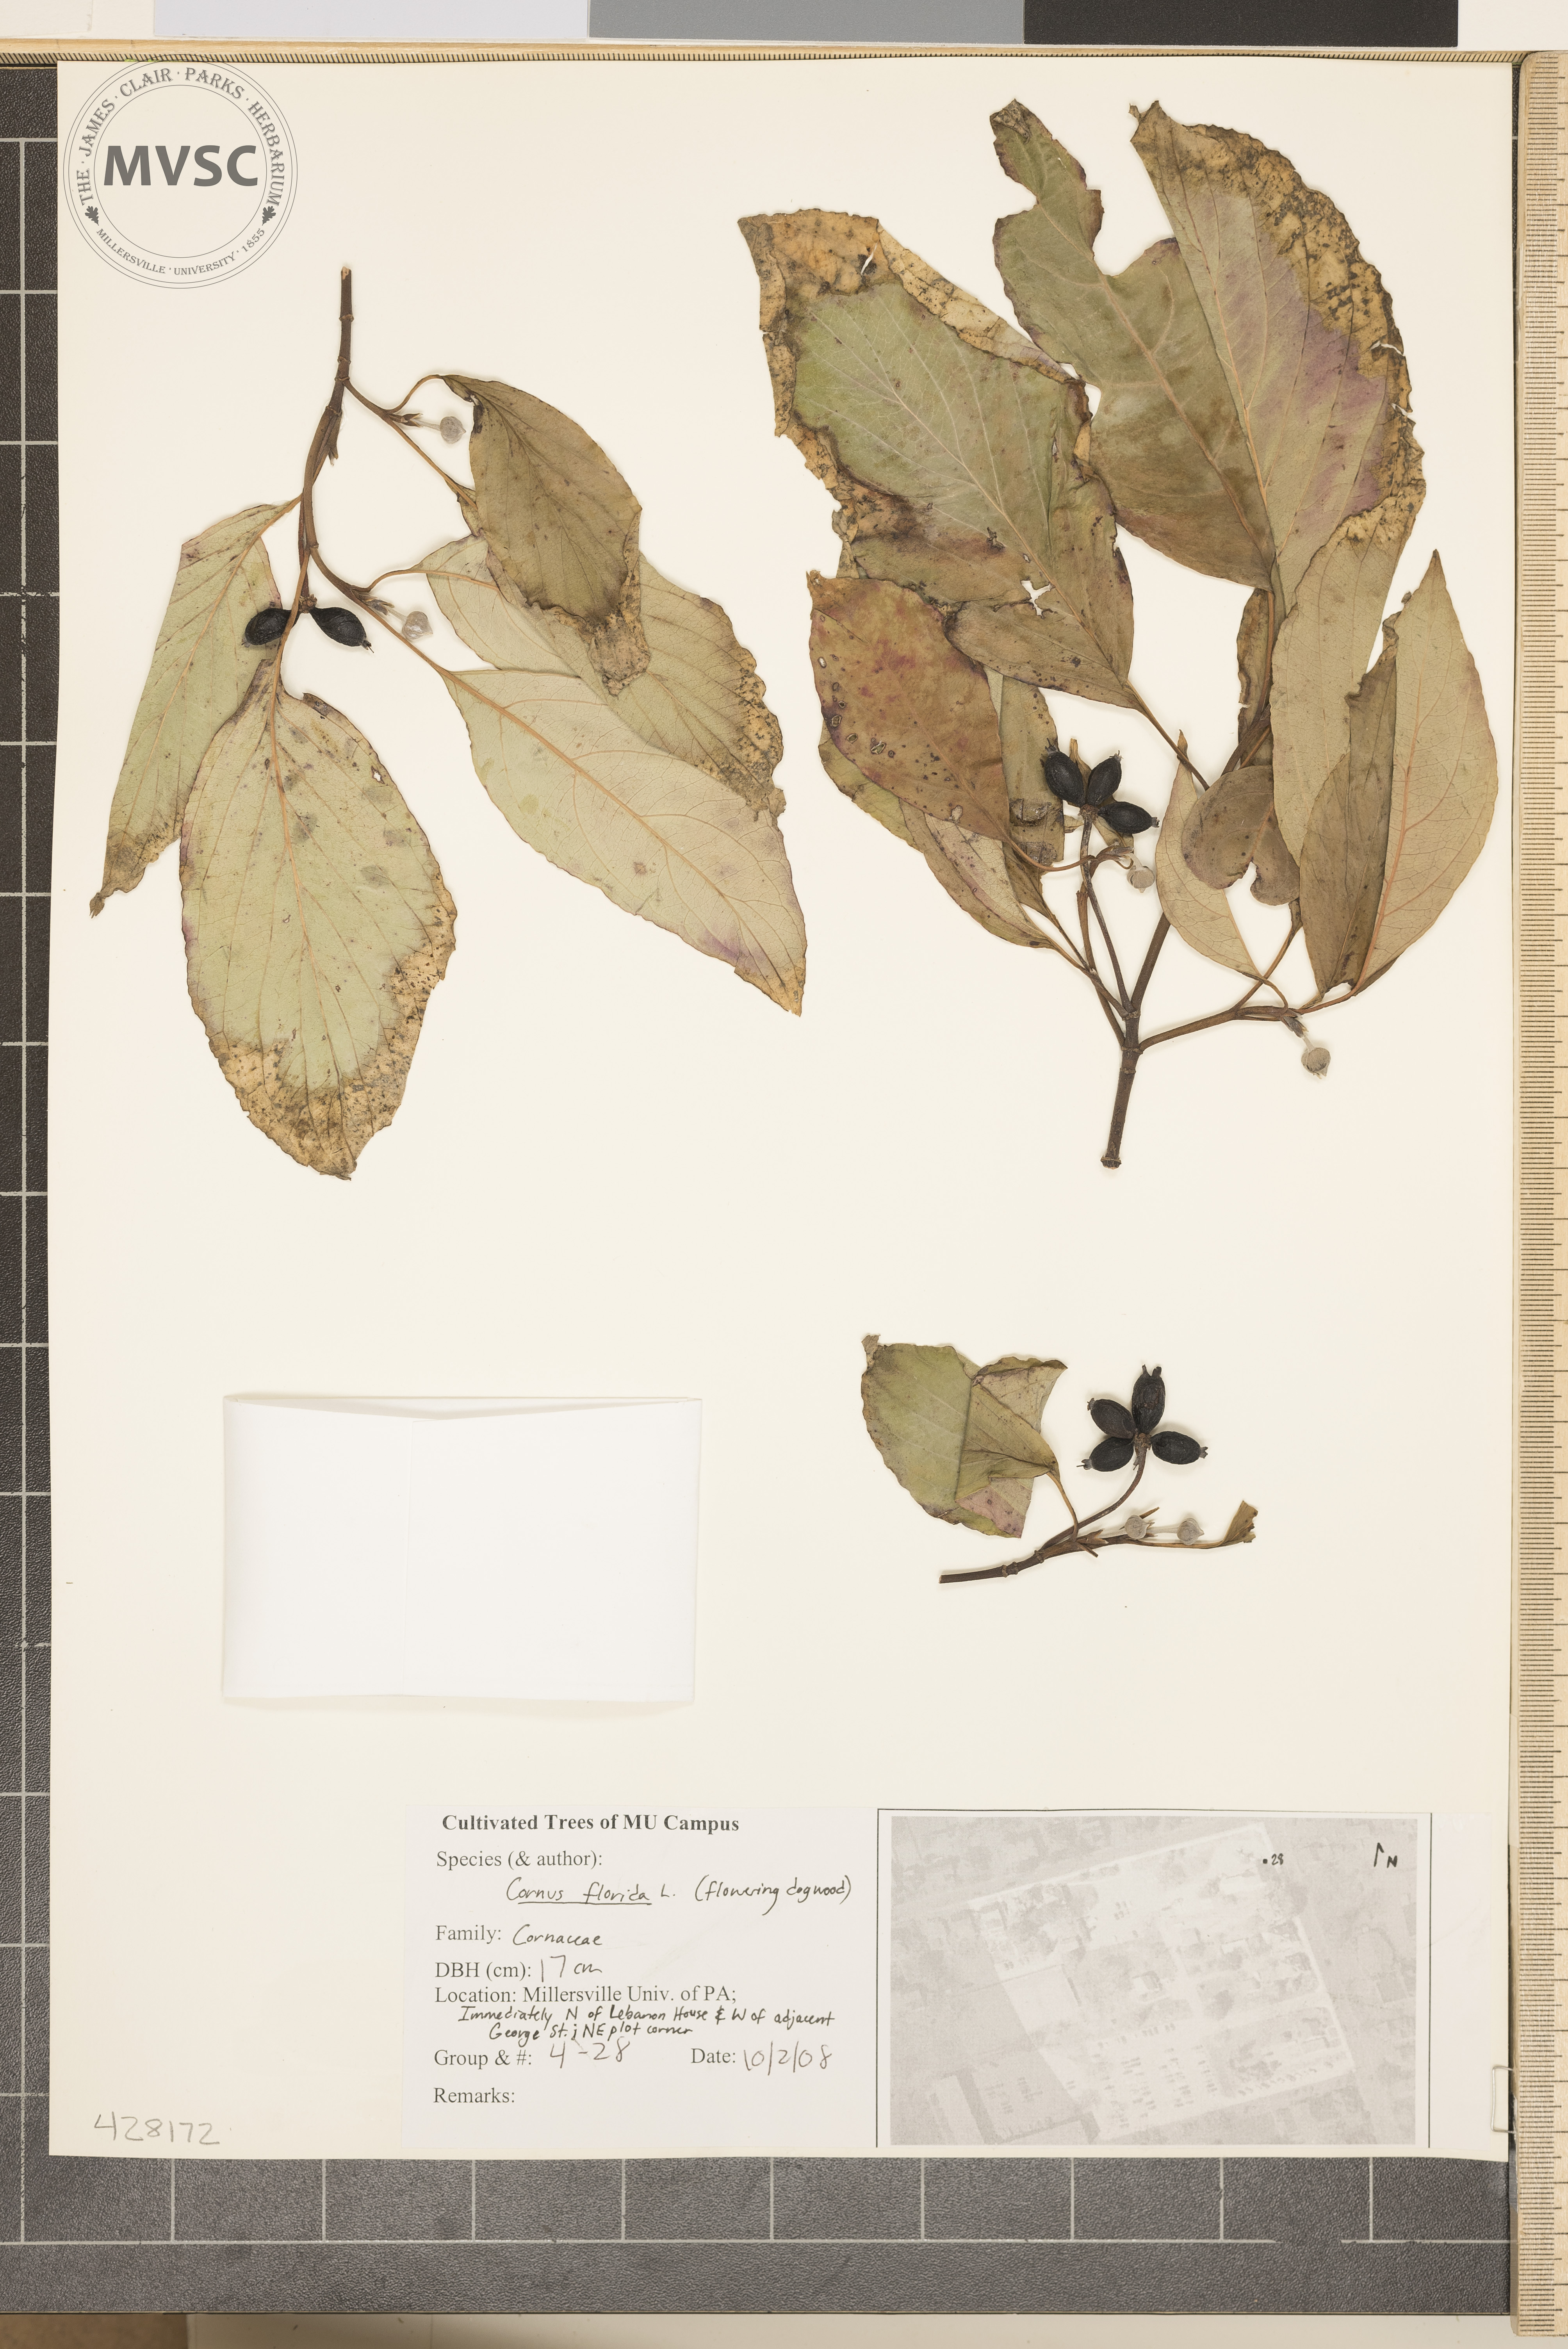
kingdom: Plantae
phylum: Tracheophyta
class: Magnoliopsida
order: Cornales
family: Cornaceae
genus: Cornus
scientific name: Cornus florida
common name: Flowering Dogwood
